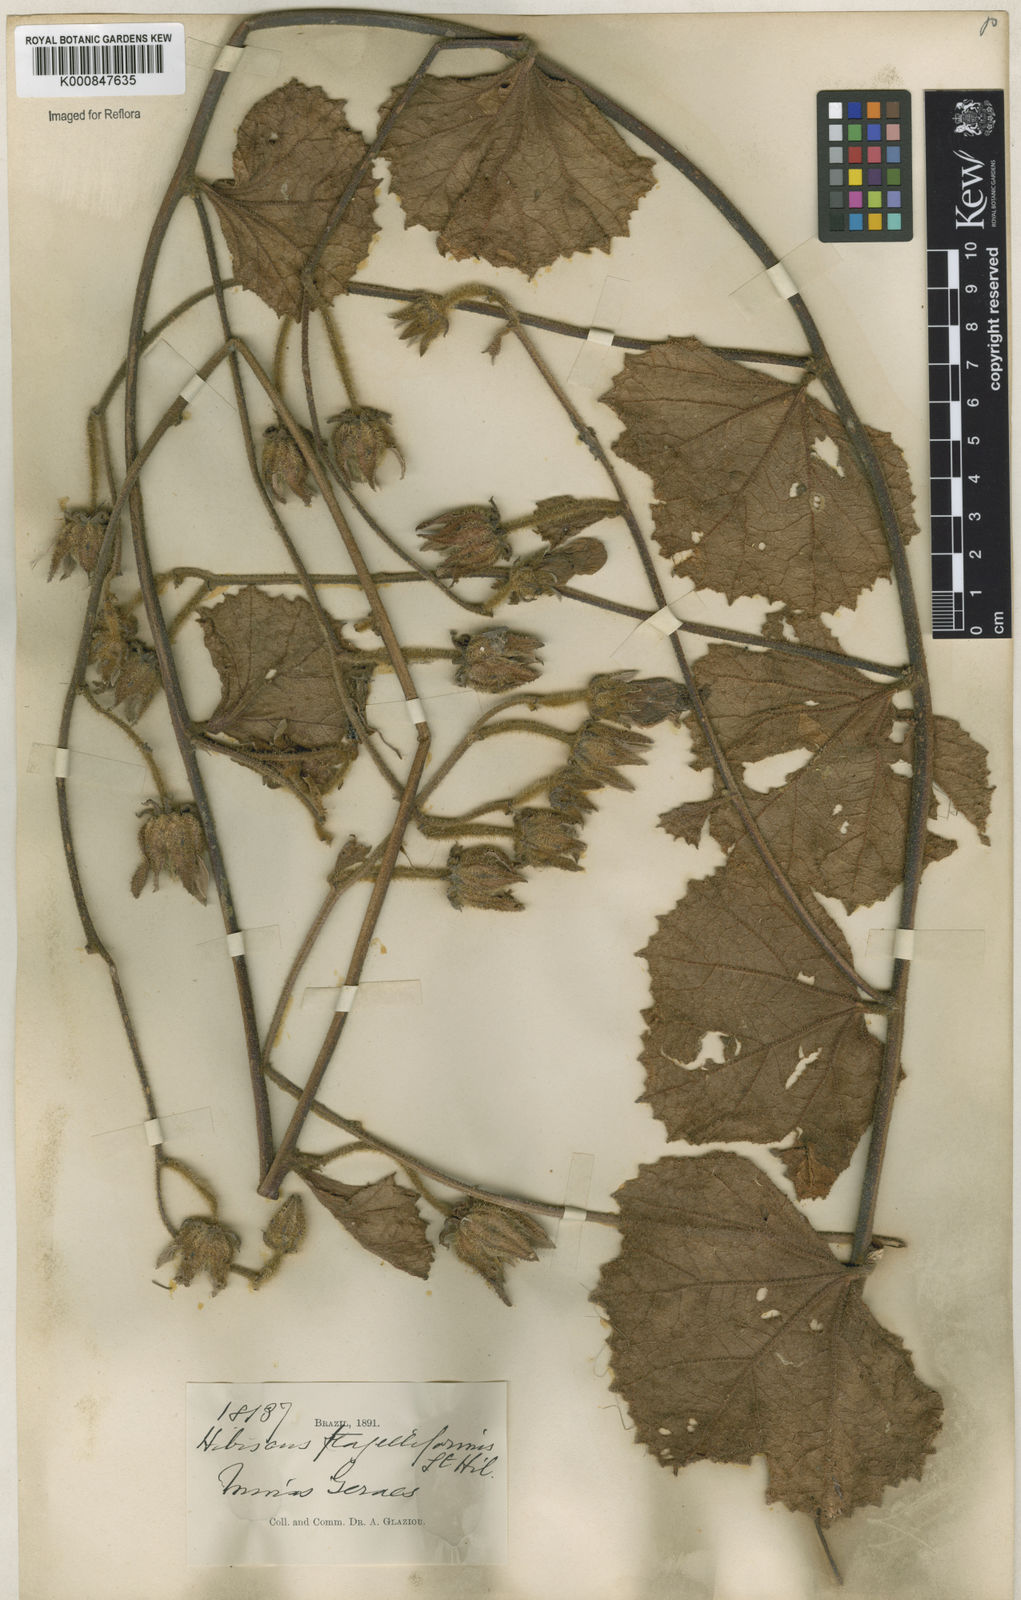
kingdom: Plantae
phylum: Tracheophyta
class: Magnoliopsida
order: Malvales
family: Malvaceae
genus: Hibiscus
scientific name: Hibiscus flagelliformis
